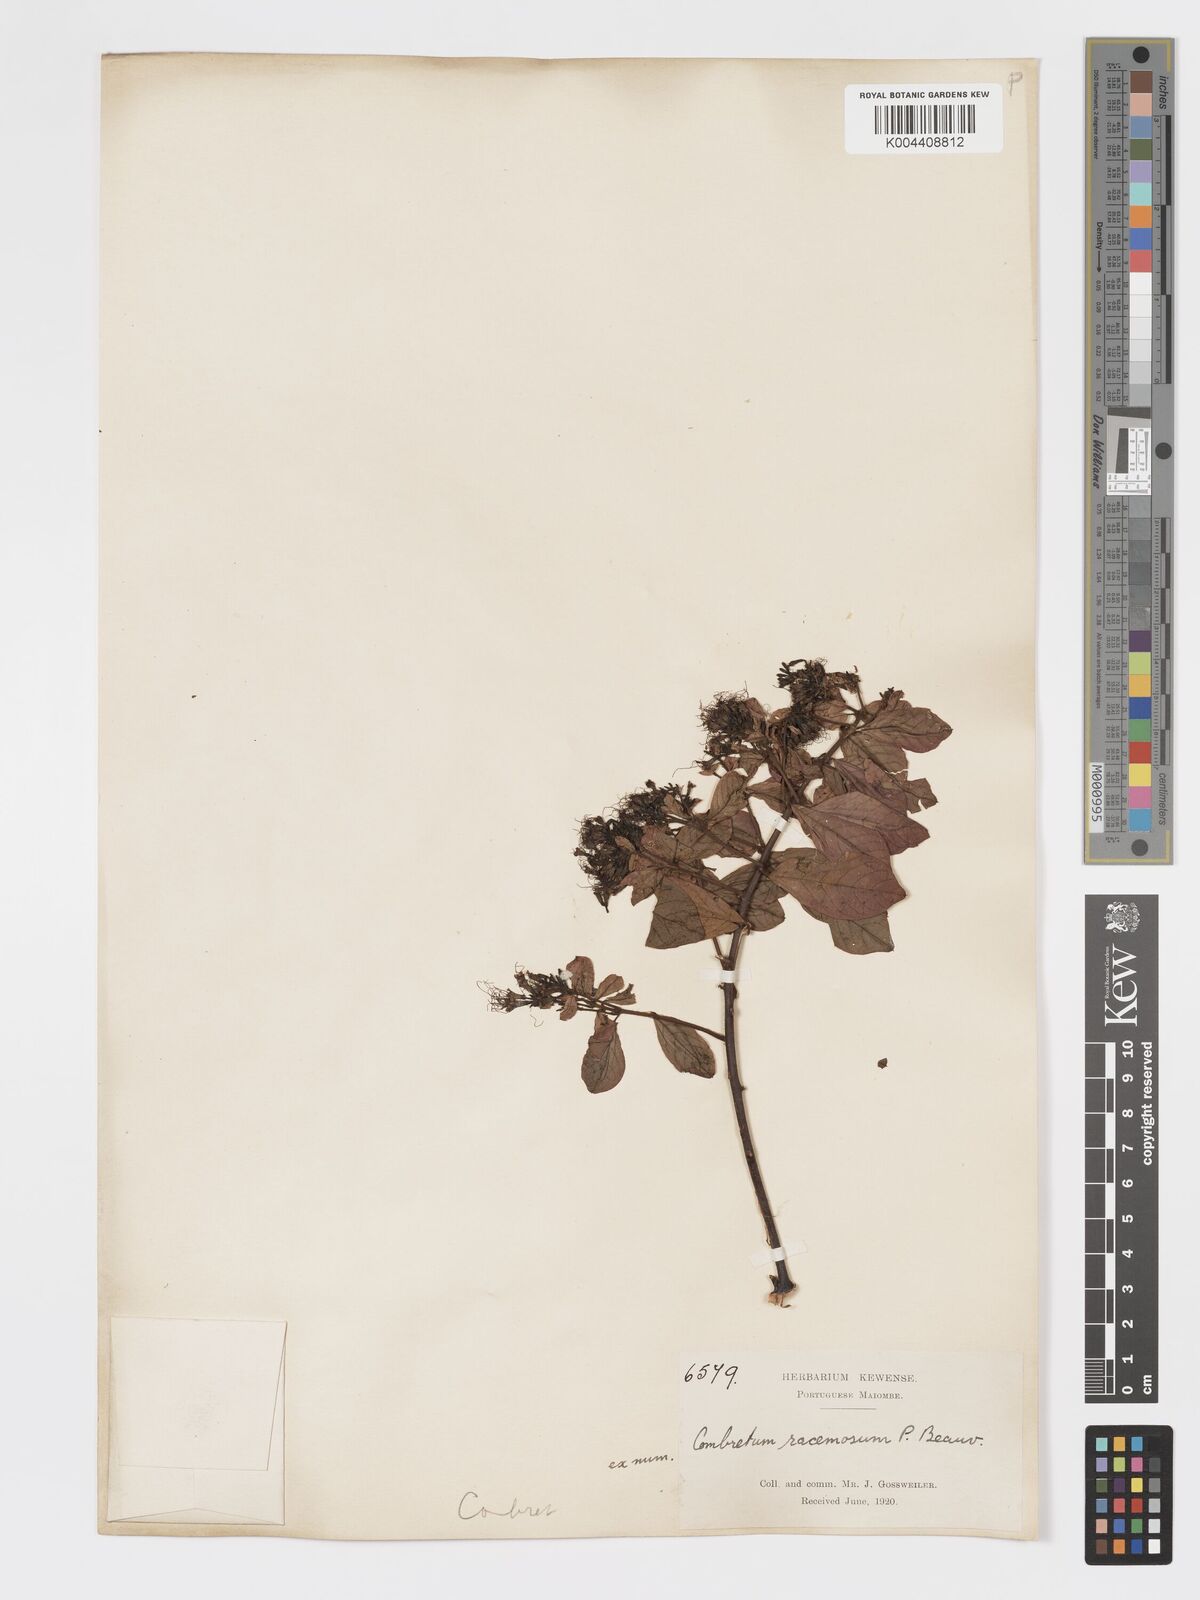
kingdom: Plantae
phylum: Tracheophyta
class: Magnoliopsida
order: Myrtales
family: Combretaceae
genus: Combretum
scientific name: Combretum racemosum
